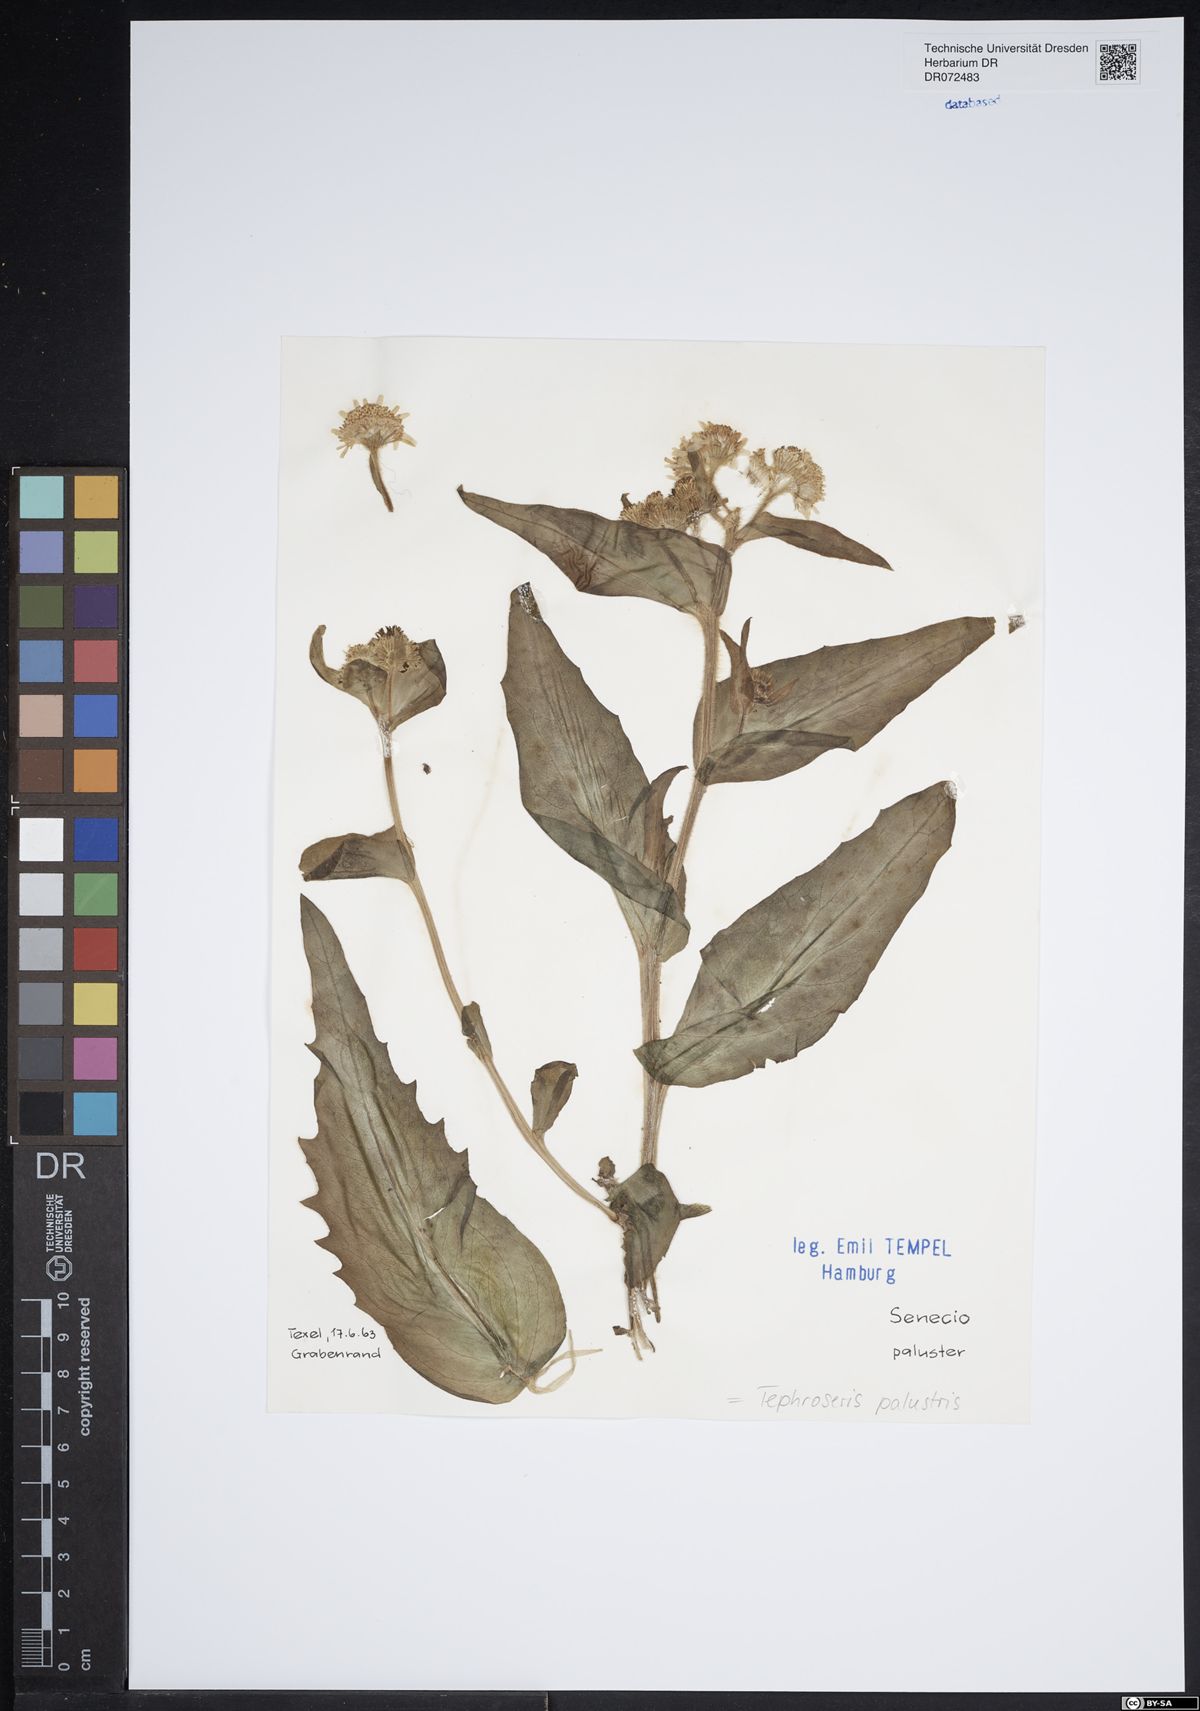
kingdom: Plantae
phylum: Tracheophyta
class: Magnoliopsida
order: Asterales
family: Asteraceae
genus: Tephroseris
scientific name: Tephroseris palustris
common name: Marsh fleawort
